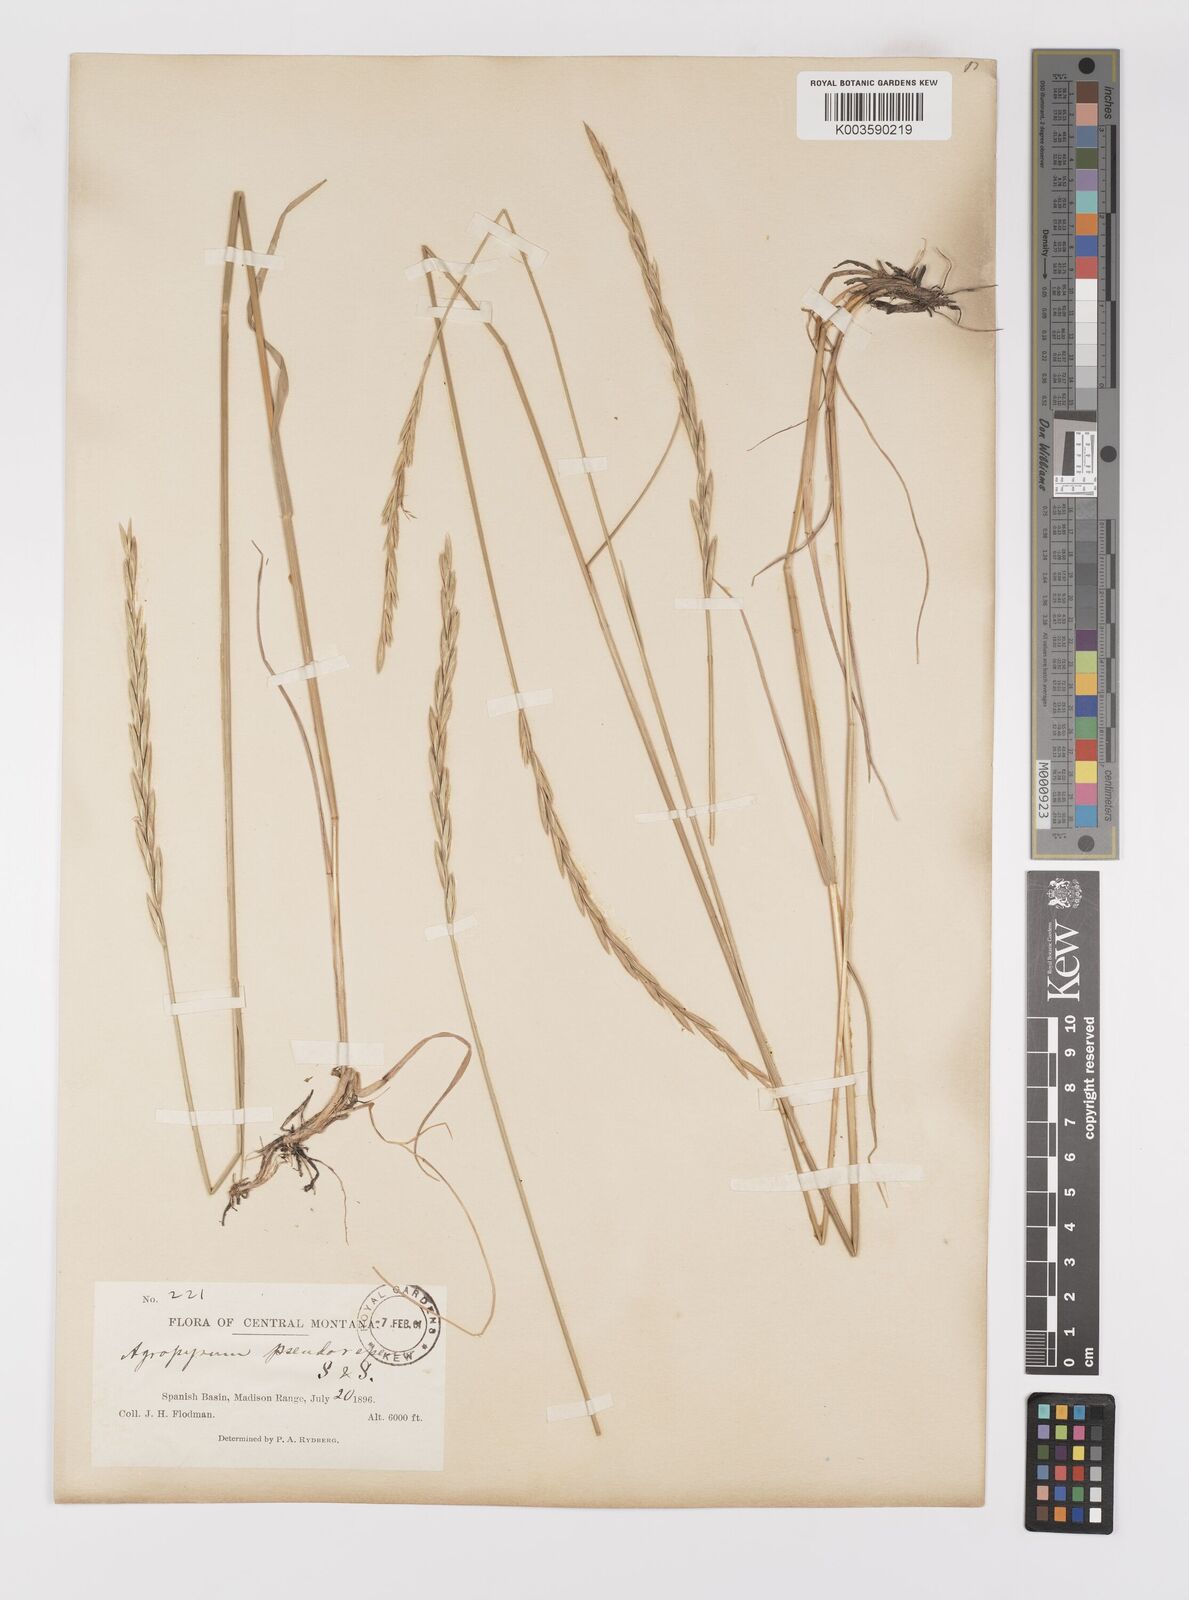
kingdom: Plantae
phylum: Tracheophyta
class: Liliopsida
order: Poales
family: Poaceae
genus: Elymus
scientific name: Elymus violaceus
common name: Arctic wheatgrass
